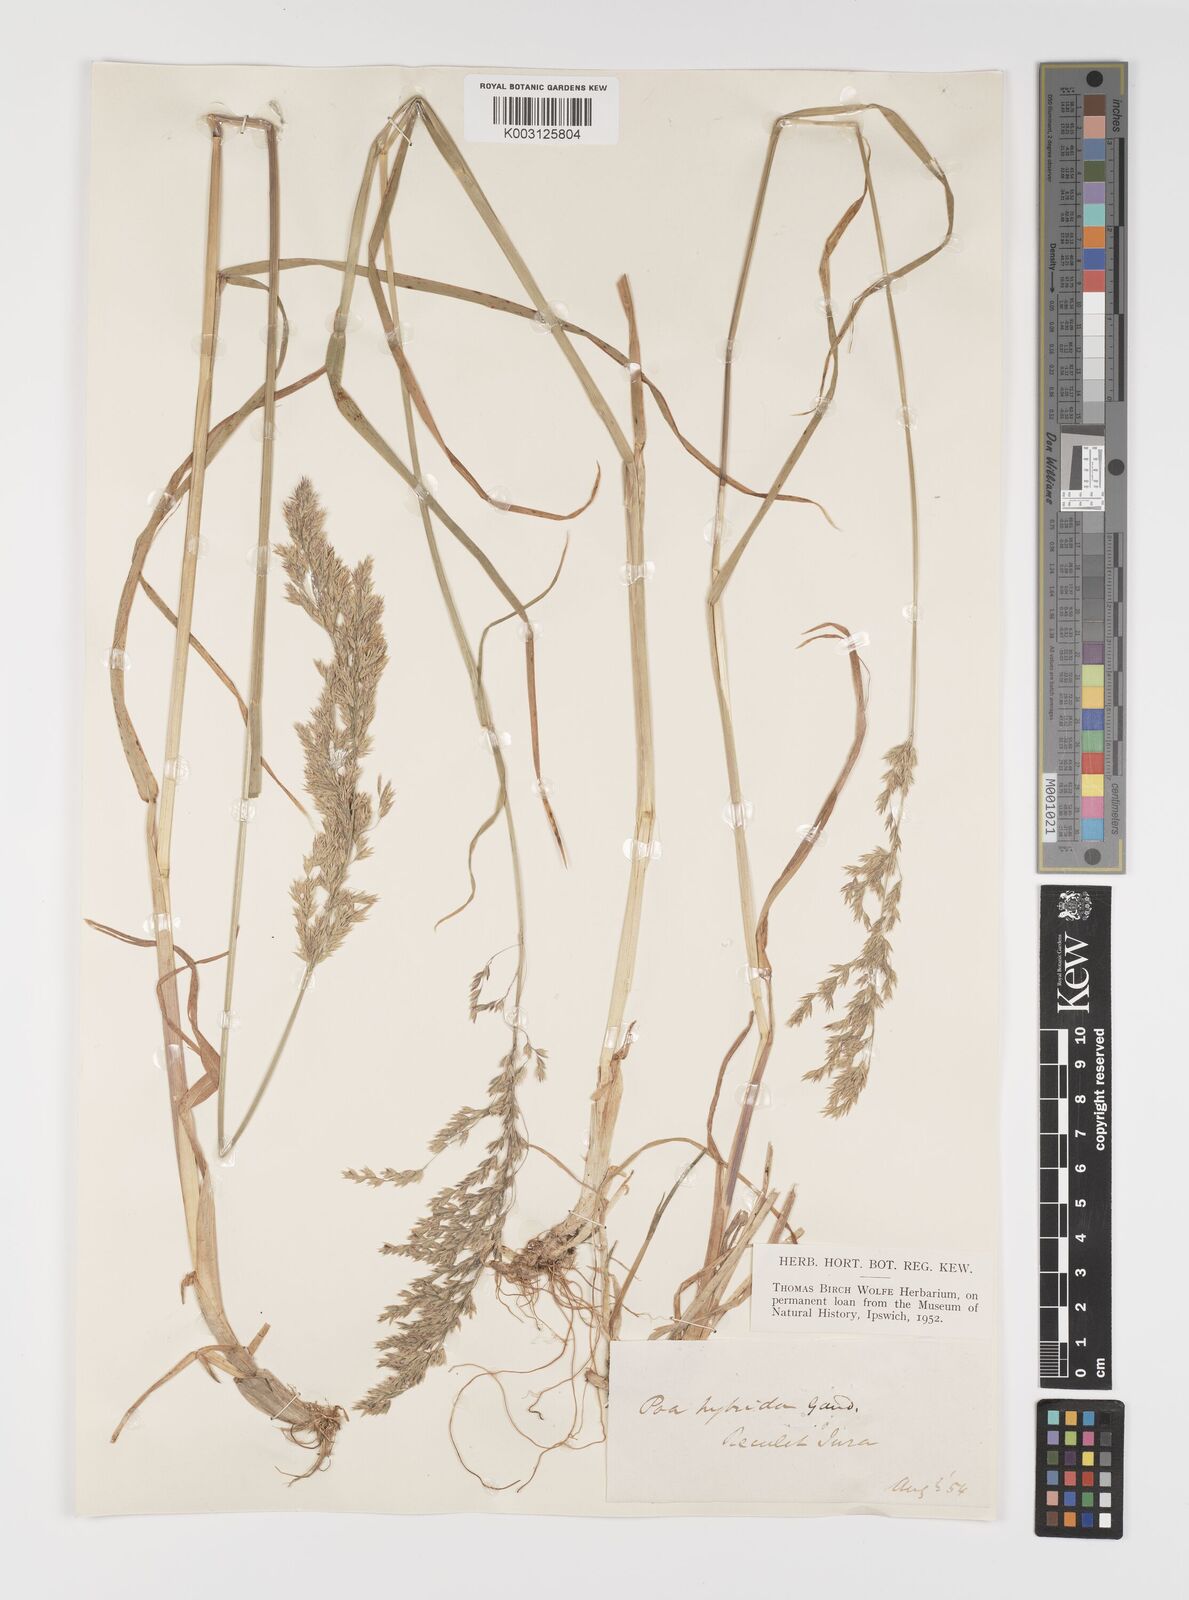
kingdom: Plantae
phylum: Tracheophyta
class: Liliopsida
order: Poales
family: Poaceae
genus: Poa
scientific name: Poa hybrida
